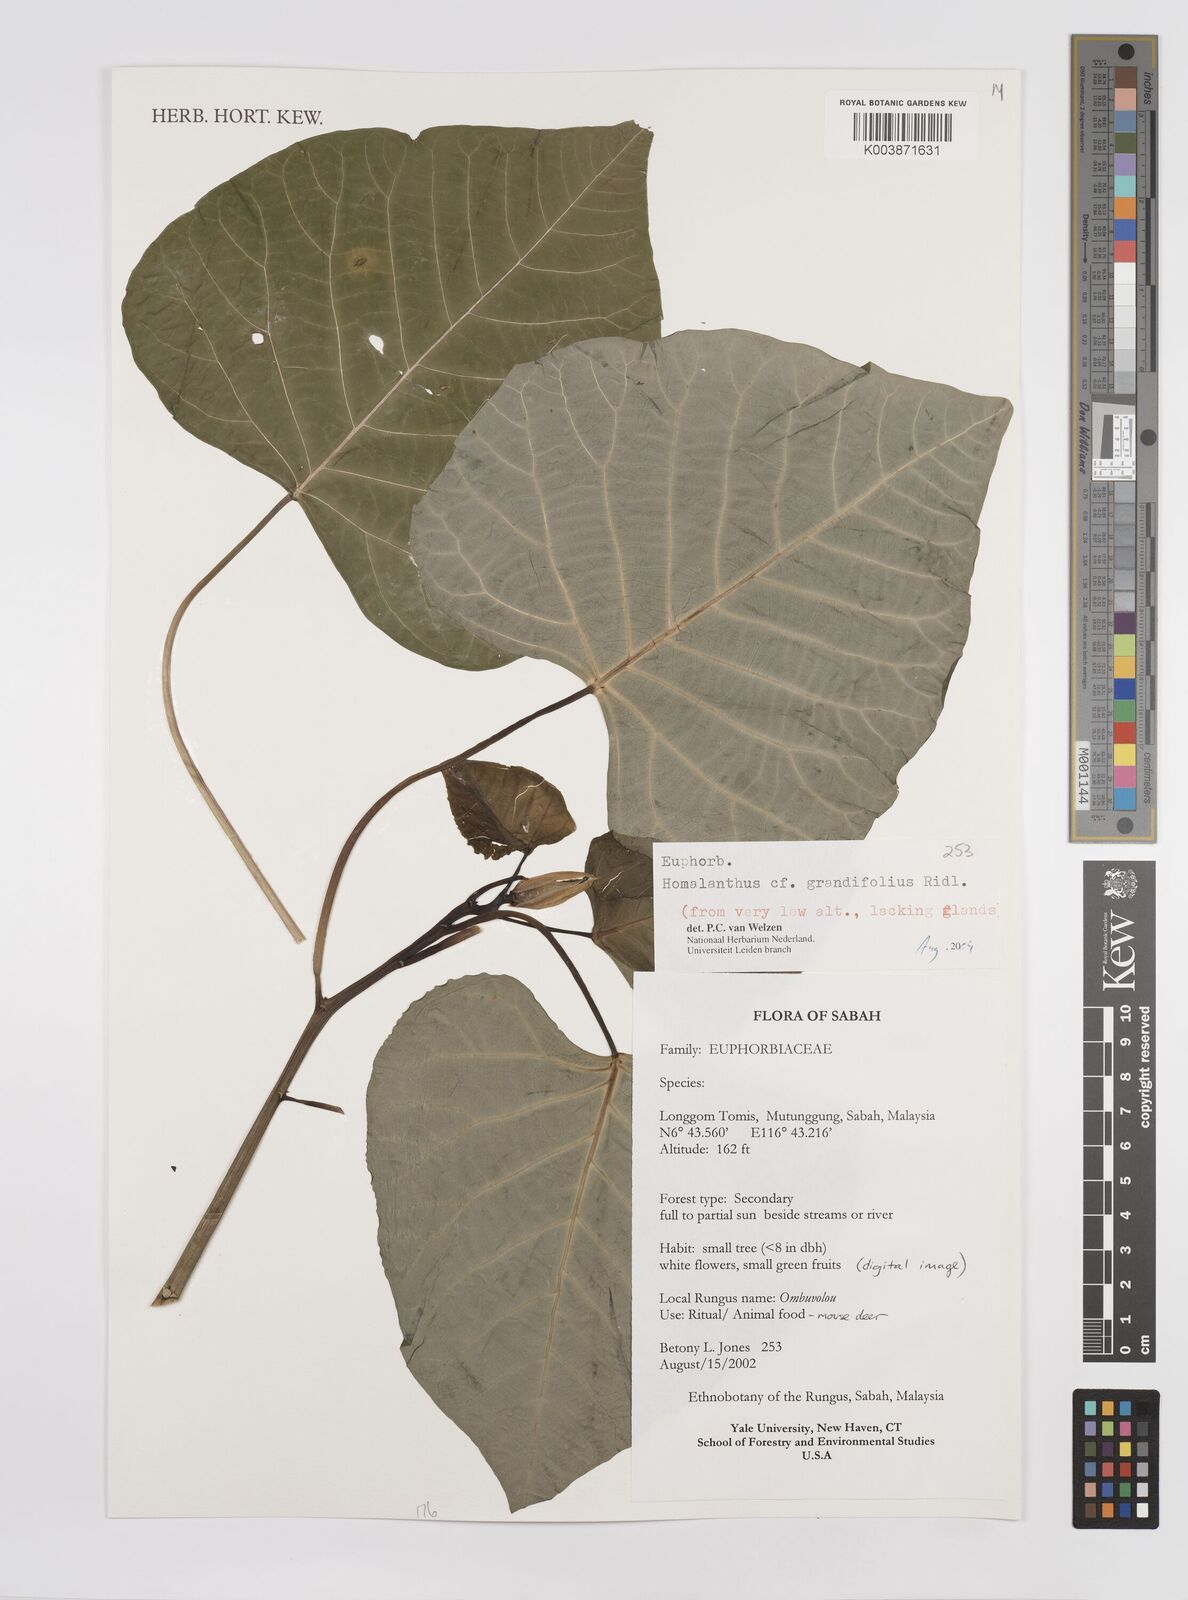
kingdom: Plantae
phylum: Tracheophyta
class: Magnoliopsida
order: Malpighiales
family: Euphorbiaceae
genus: Homalanthus
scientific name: Homalanthus grandifolius
